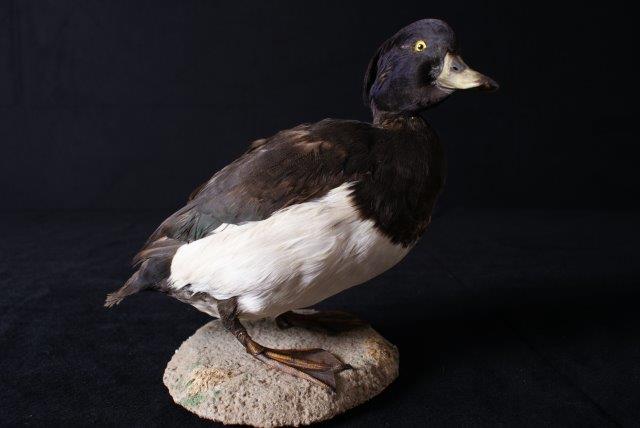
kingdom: Animalia
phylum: Chordata
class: Aves
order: Anseriformes
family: Anatidae
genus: Aythya
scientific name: Aythya fuligula
